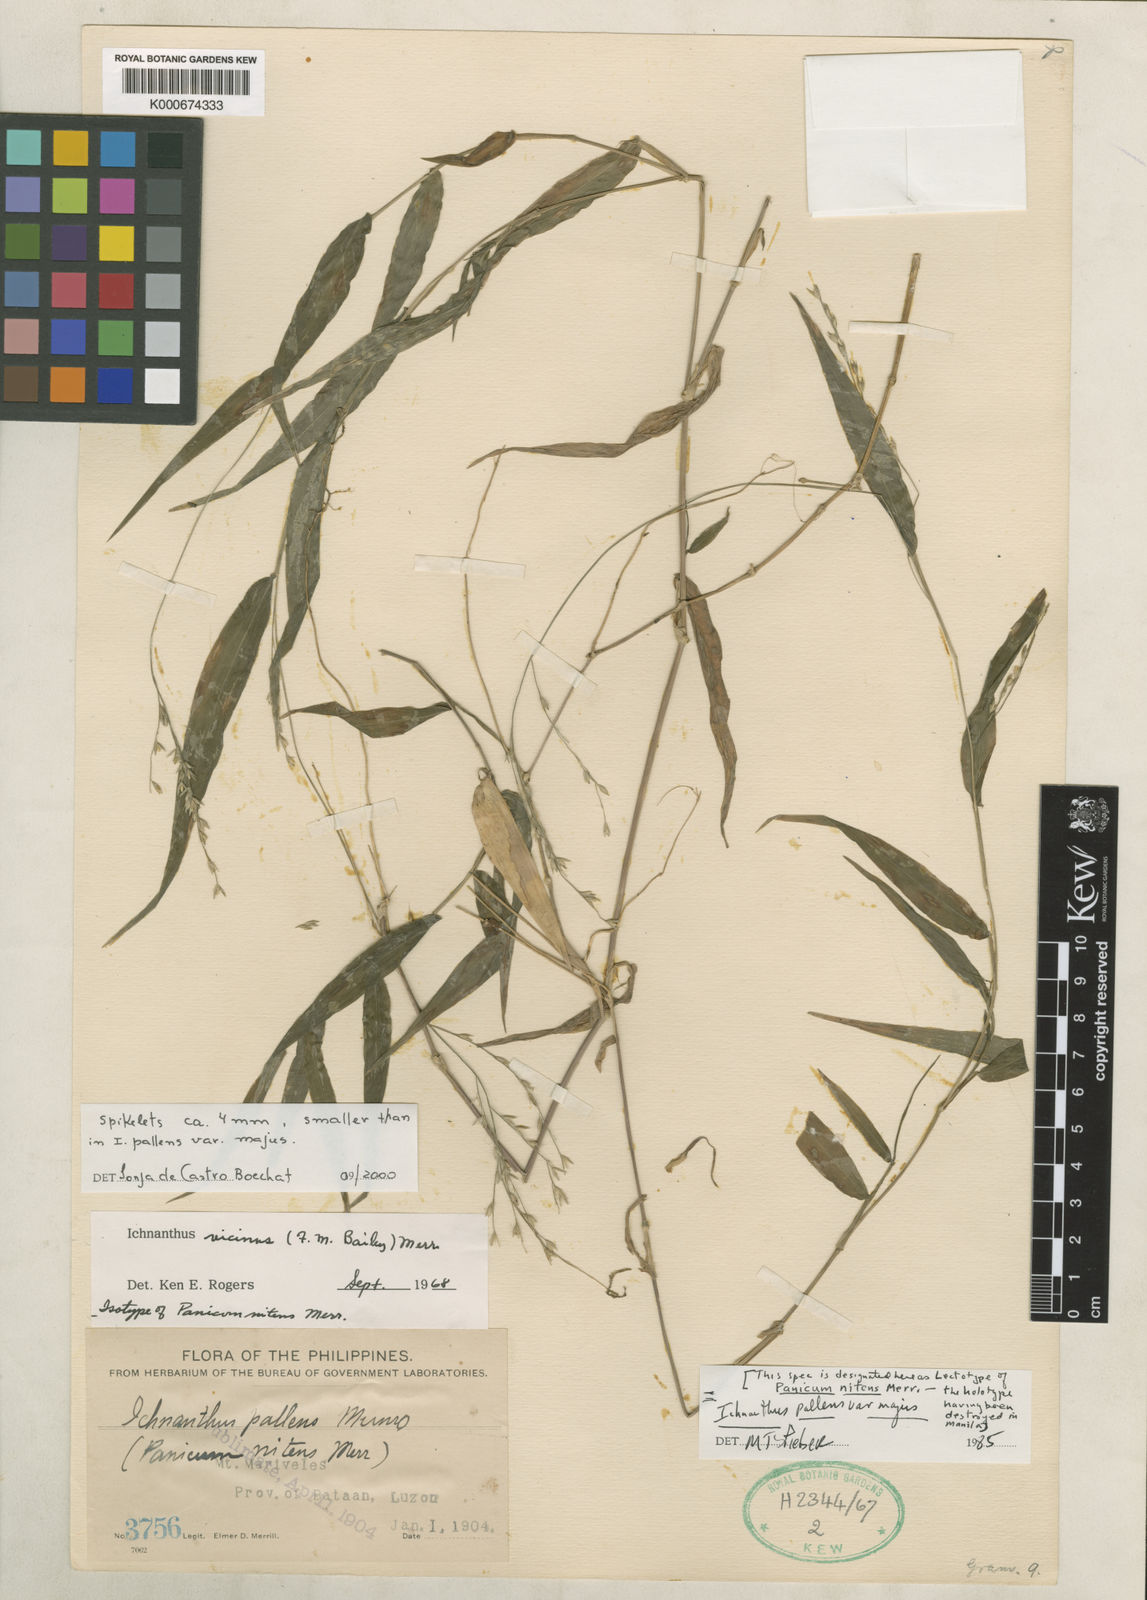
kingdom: Plantae
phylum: Tracheophyta
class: Liliopsida
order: Poales
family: Poaceae
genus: Ichnanthus
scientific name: Ichnanthus pallens
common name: Water grass
